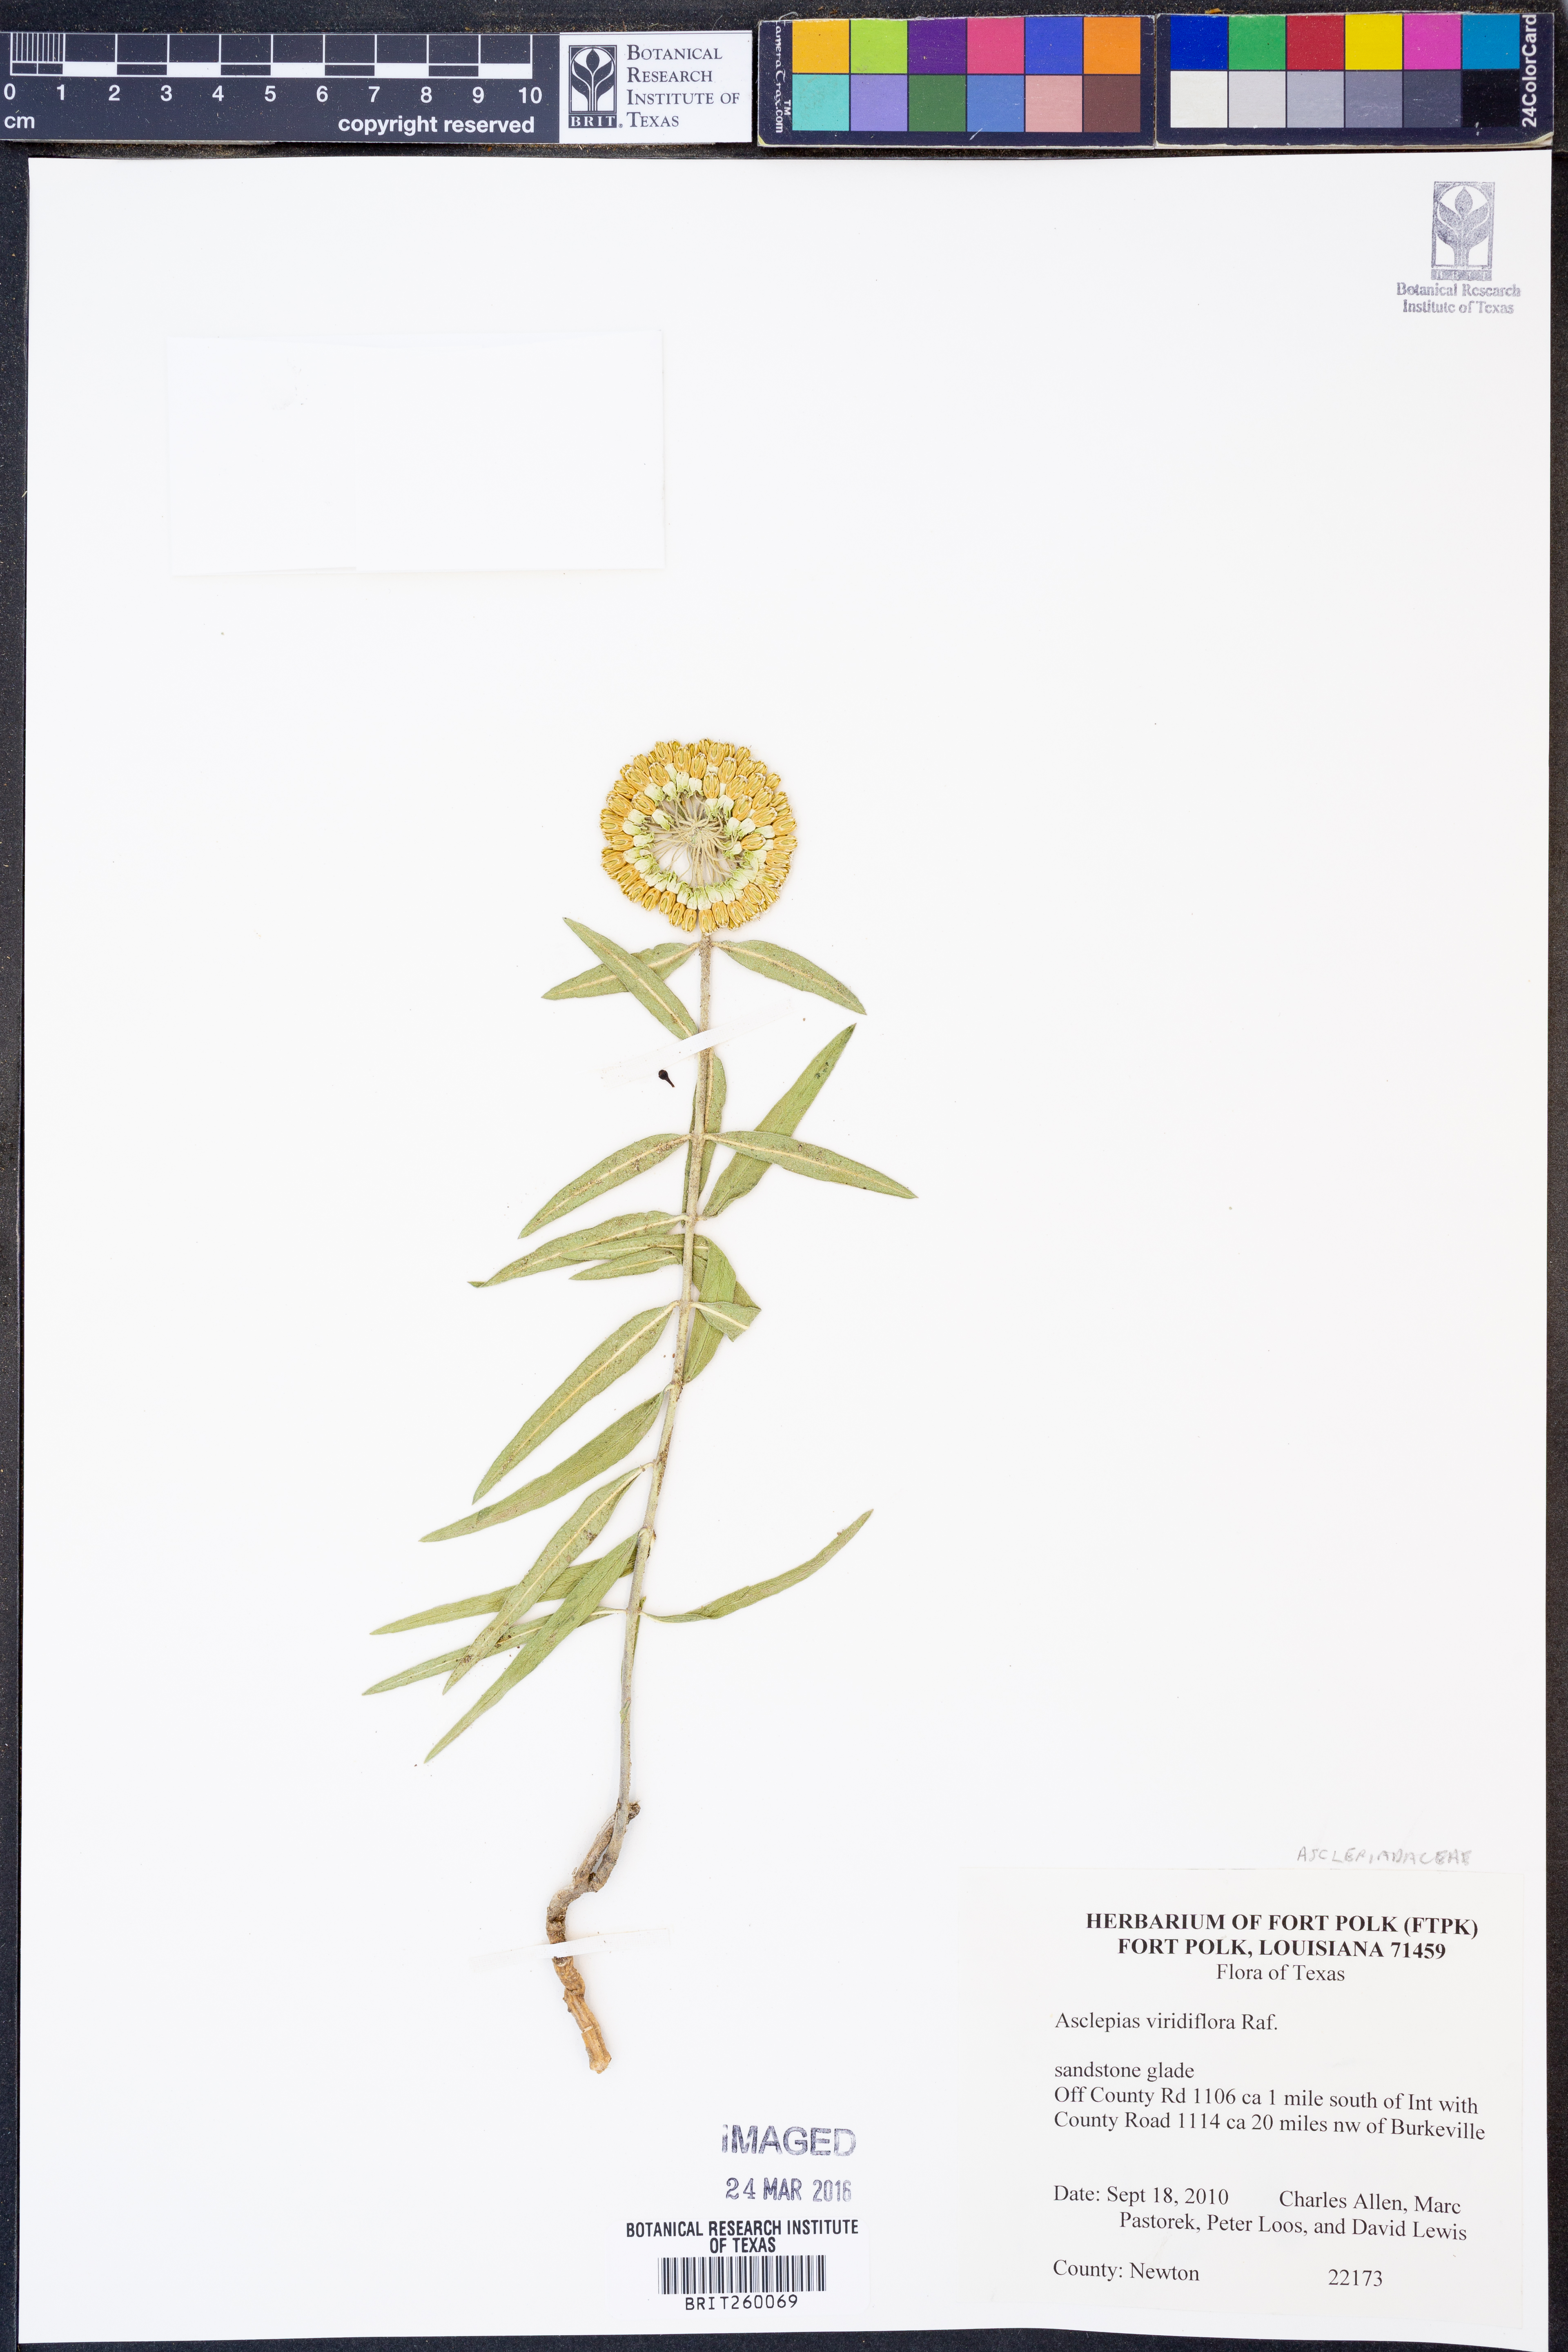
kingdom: Plantae
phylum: Tracheophyta
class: Magnoliopsida
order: Gentianales
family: Apocynaceae
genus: Asclepias
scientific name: Asclepias viridiflora
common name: Green comet milkweed
